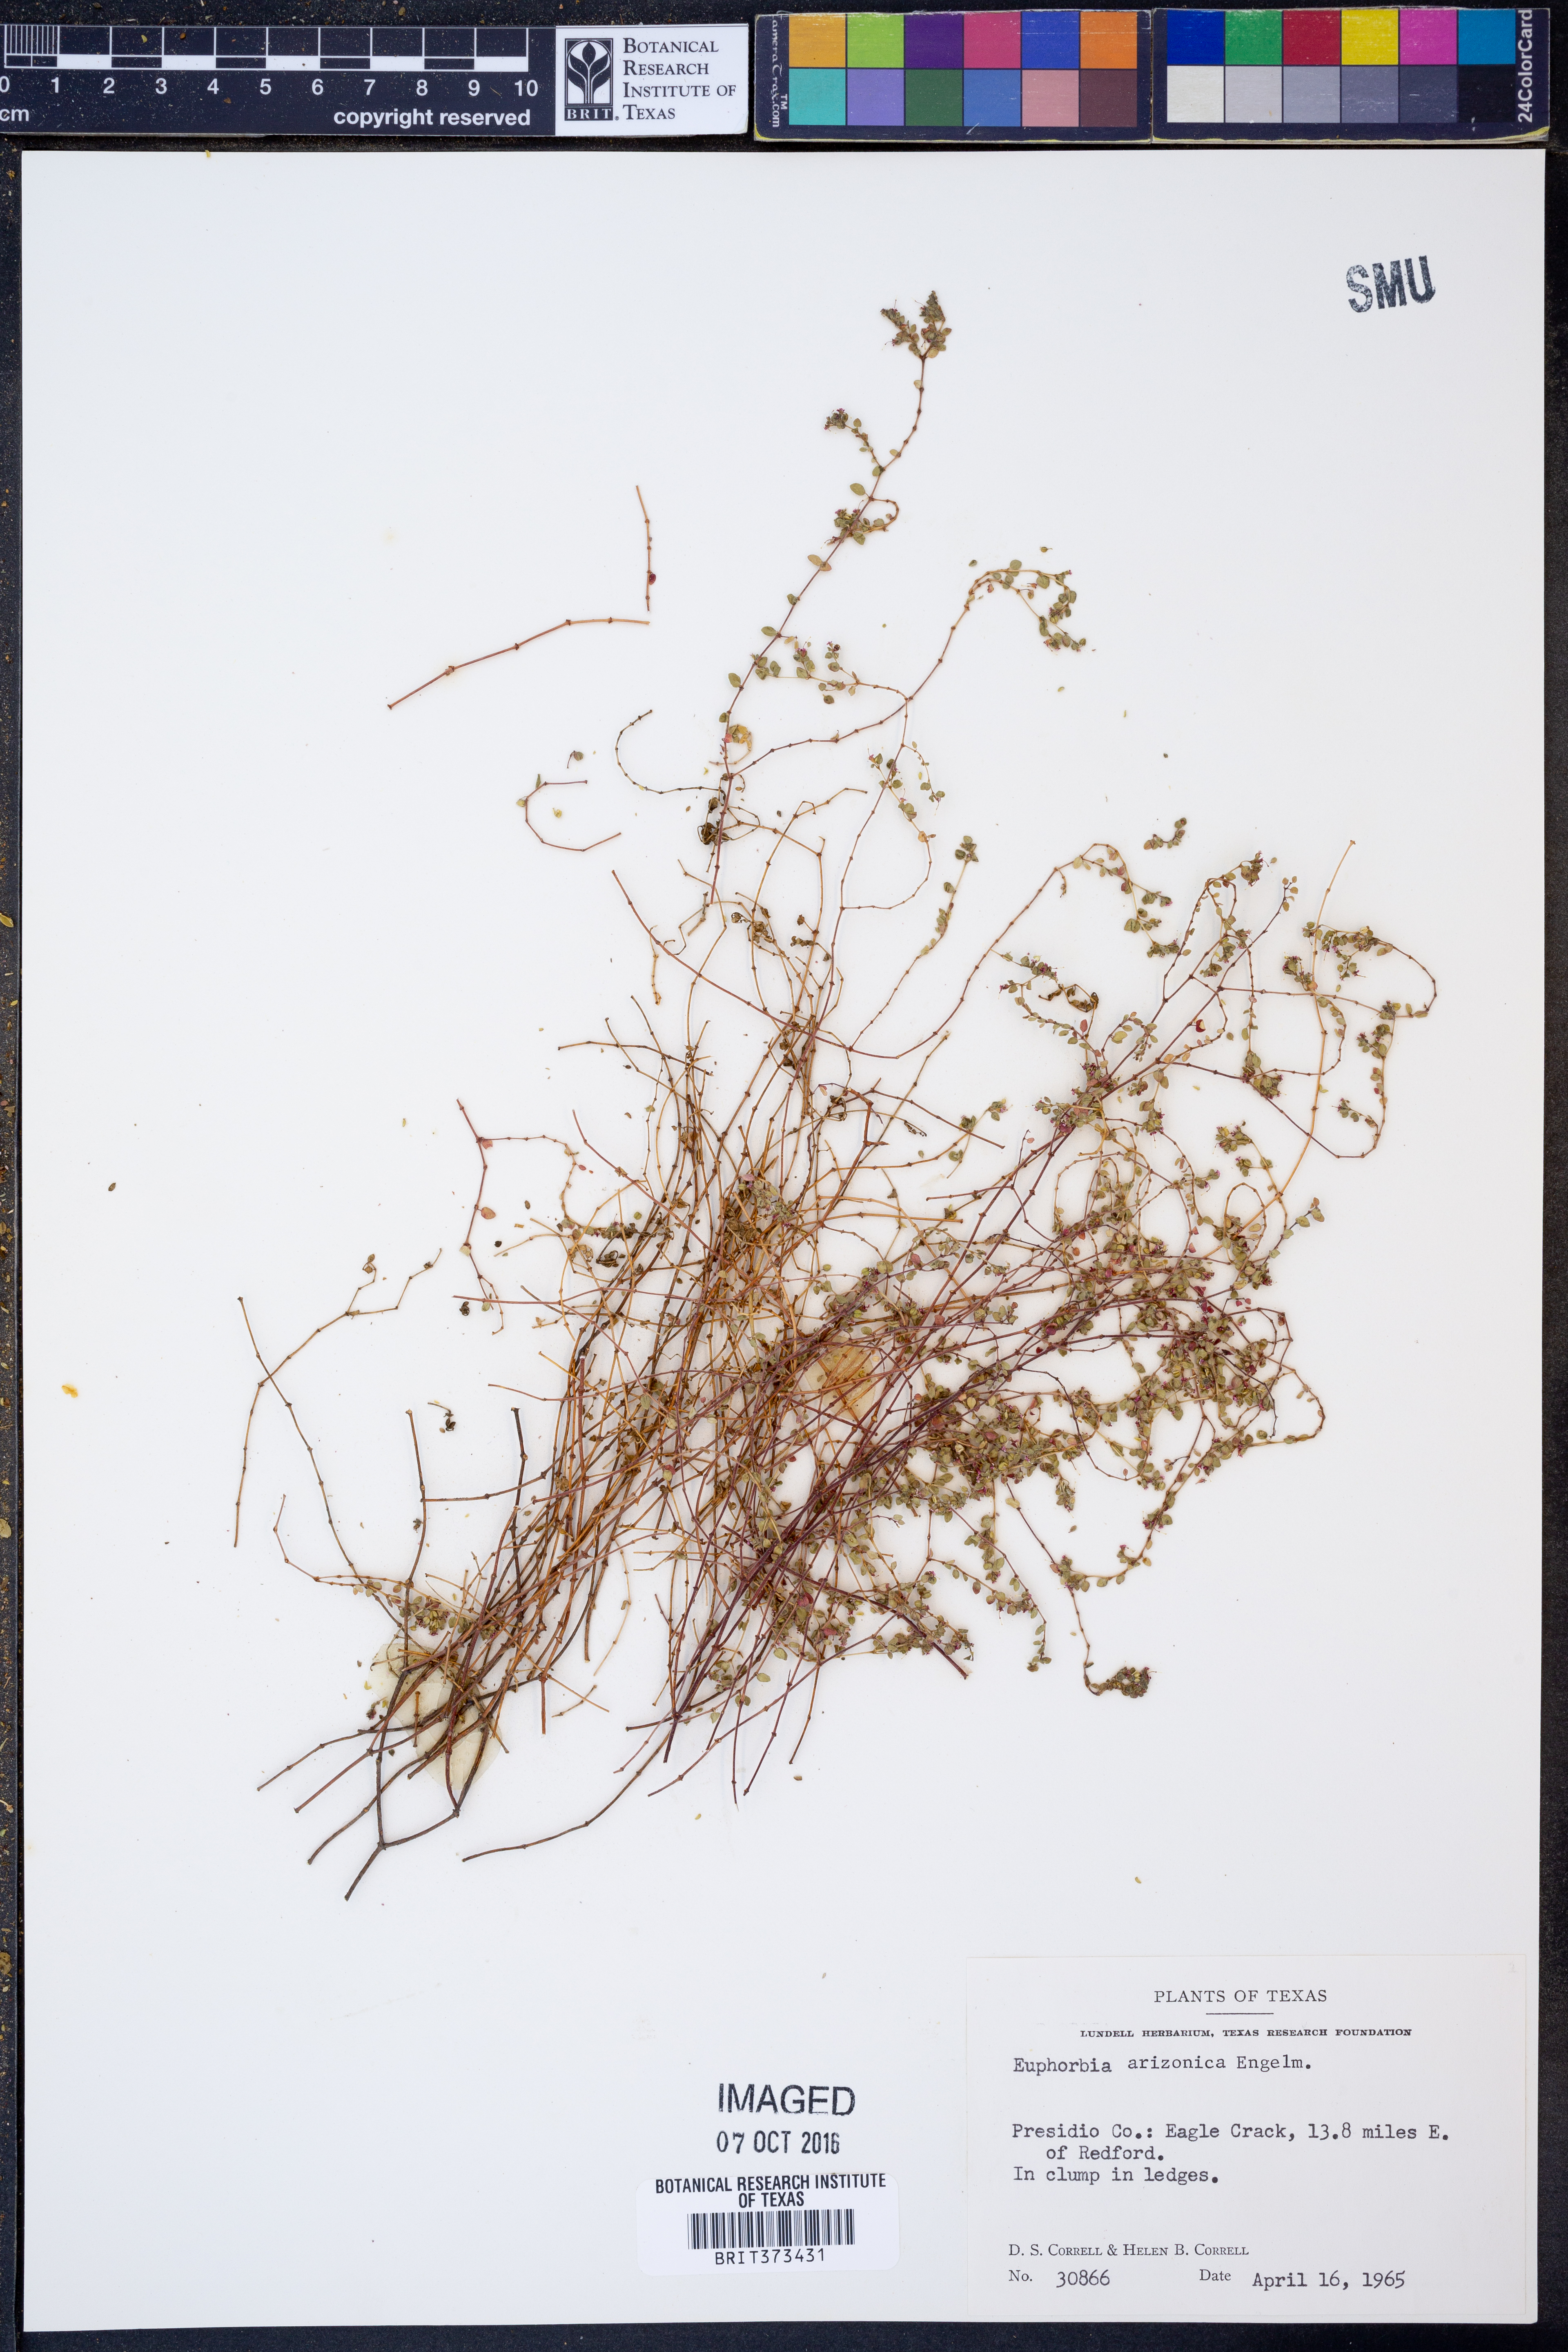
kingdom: Plantae
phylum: Tracheophyta
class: Magnoliopsida
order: Malpighiales
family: Euphorbiaceae
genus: Euphorbia
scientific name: Euphorbia arizonica
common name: Arizona spurge
